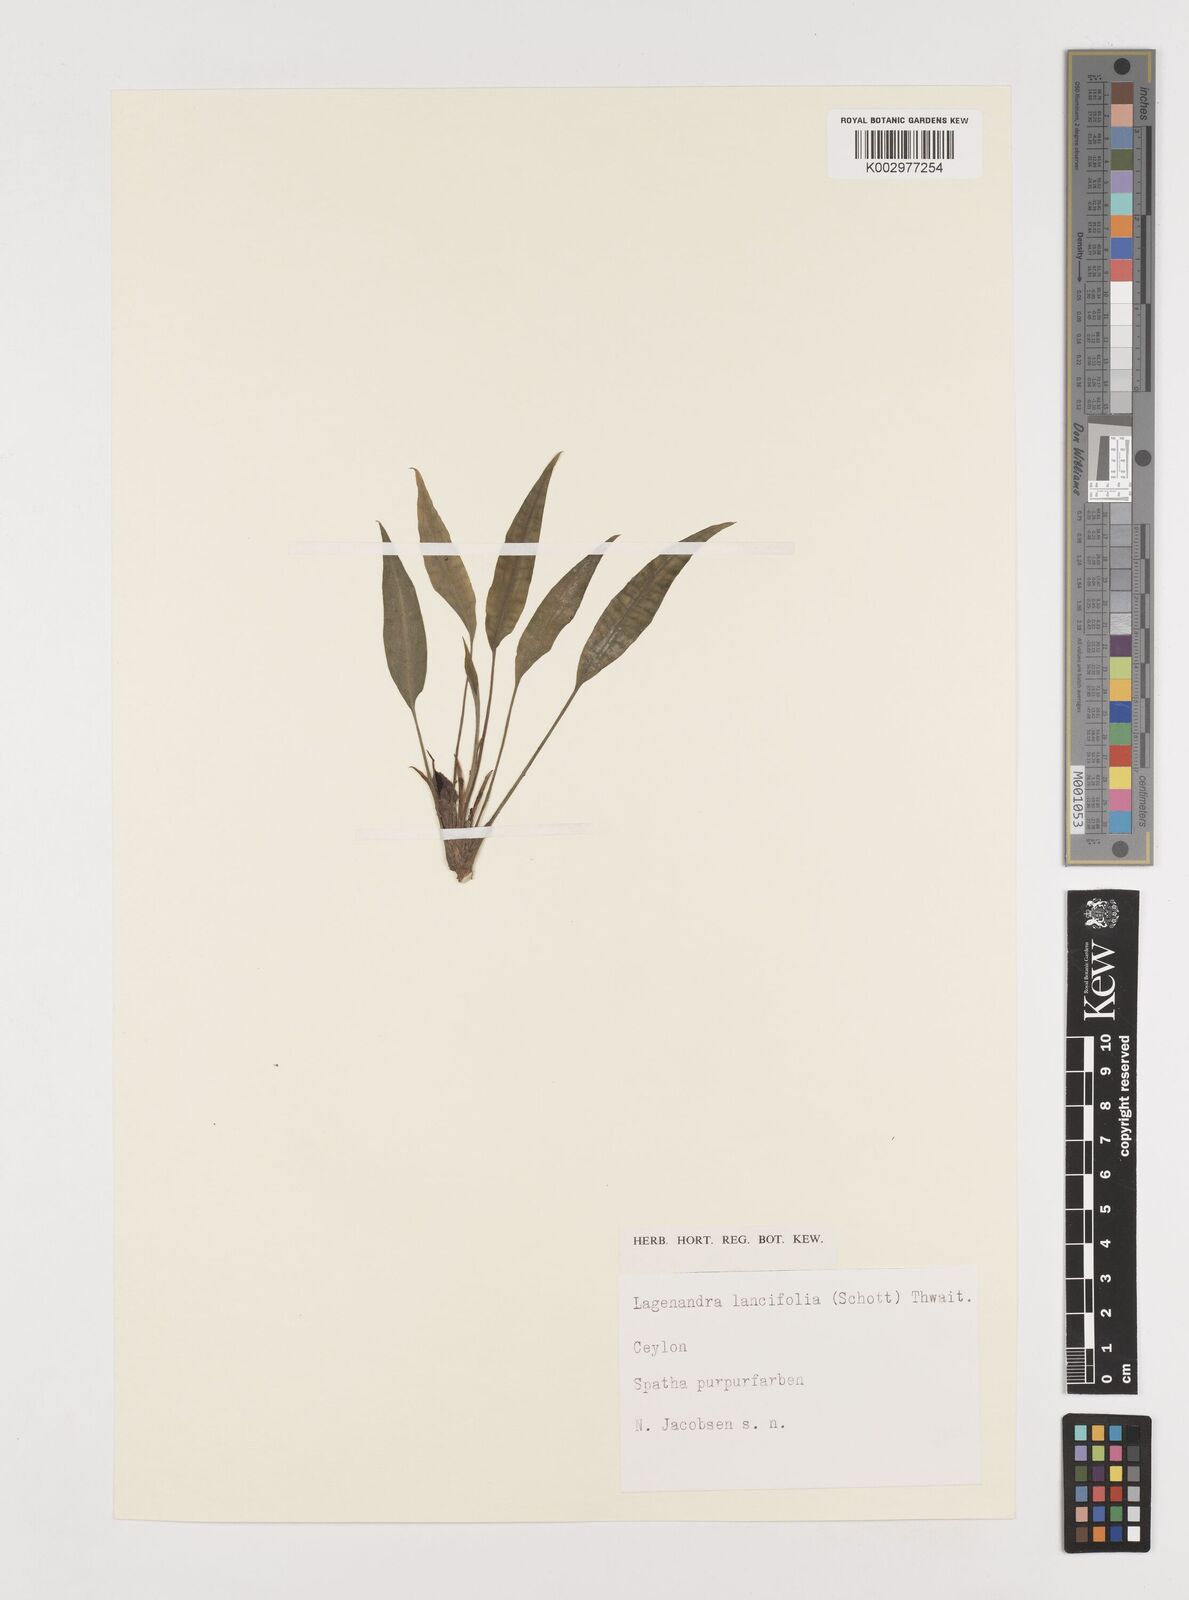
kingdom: Plantae
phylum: Tracheophyta
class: Liliopsida
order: Alismatales
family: Araceae
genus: Lagenandra
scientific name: Lagenandra lancifolia
